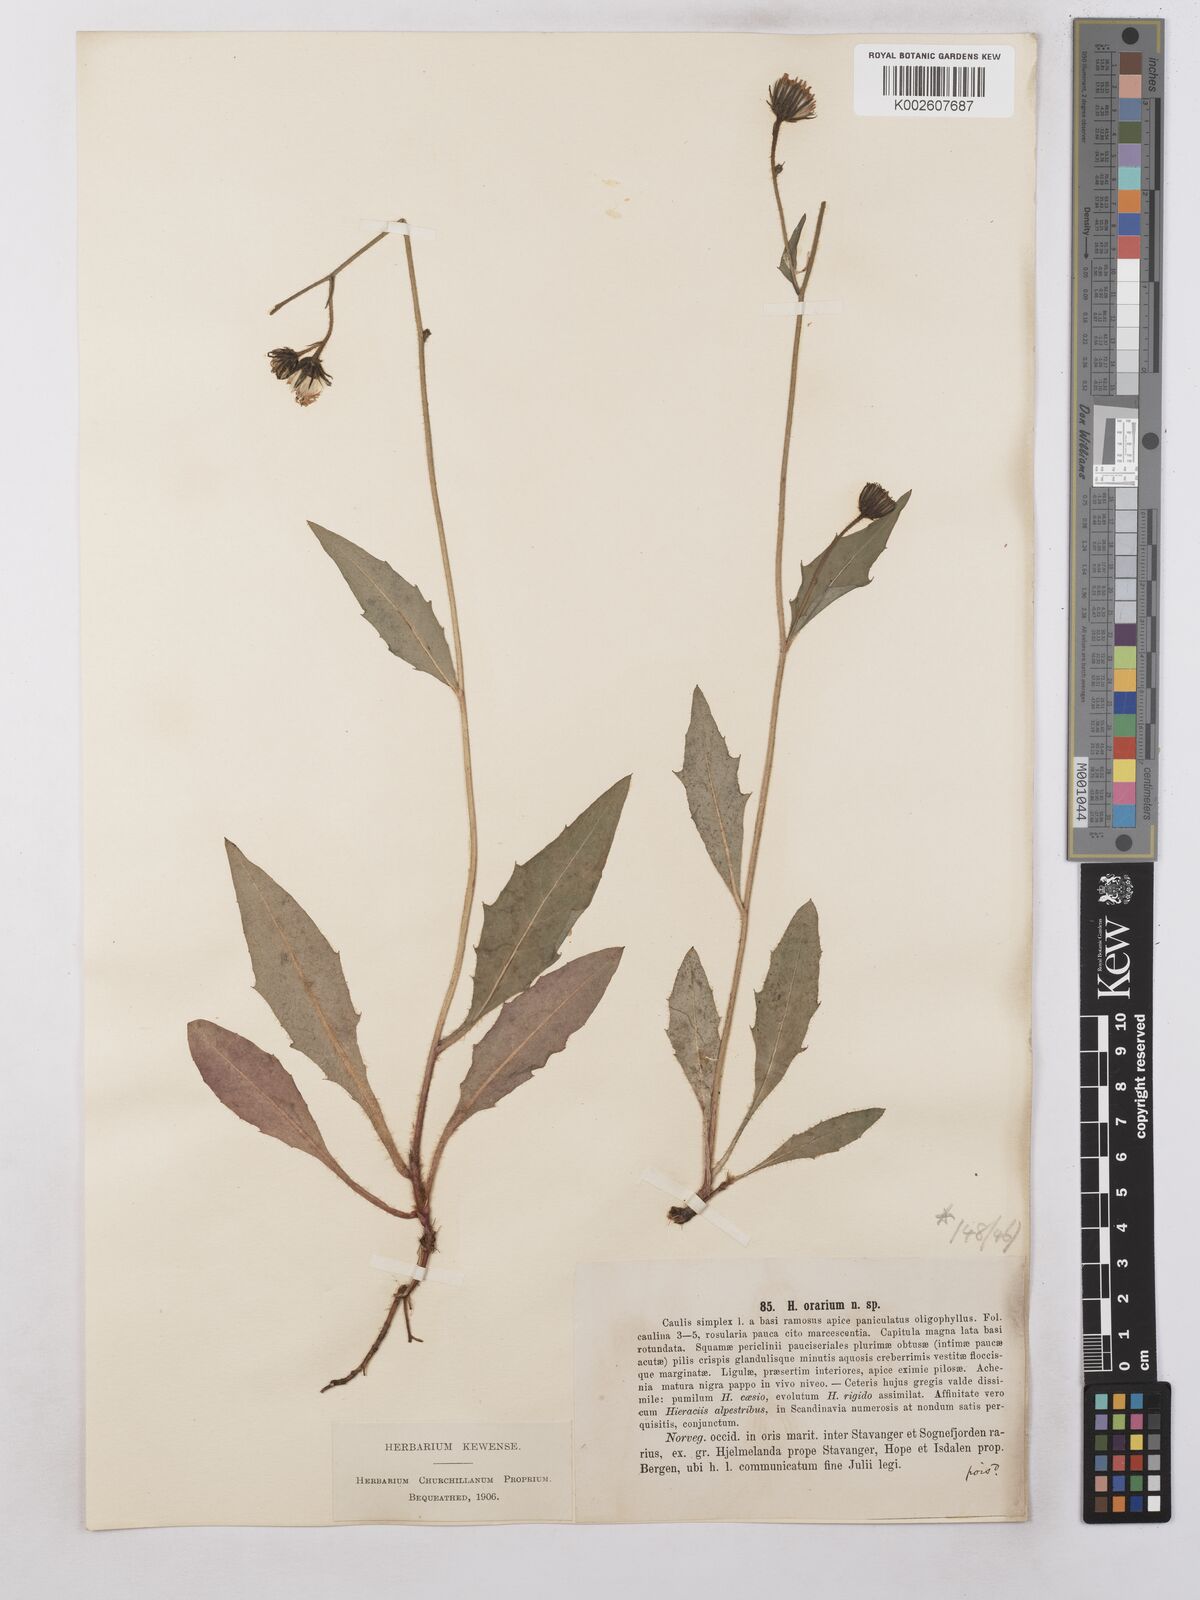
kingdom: Plantae
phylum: Tracheophyta
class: Magnoliopsida
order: Asterales
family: Asteraceae
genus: Hieracium
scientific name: Hieracium subramosum
